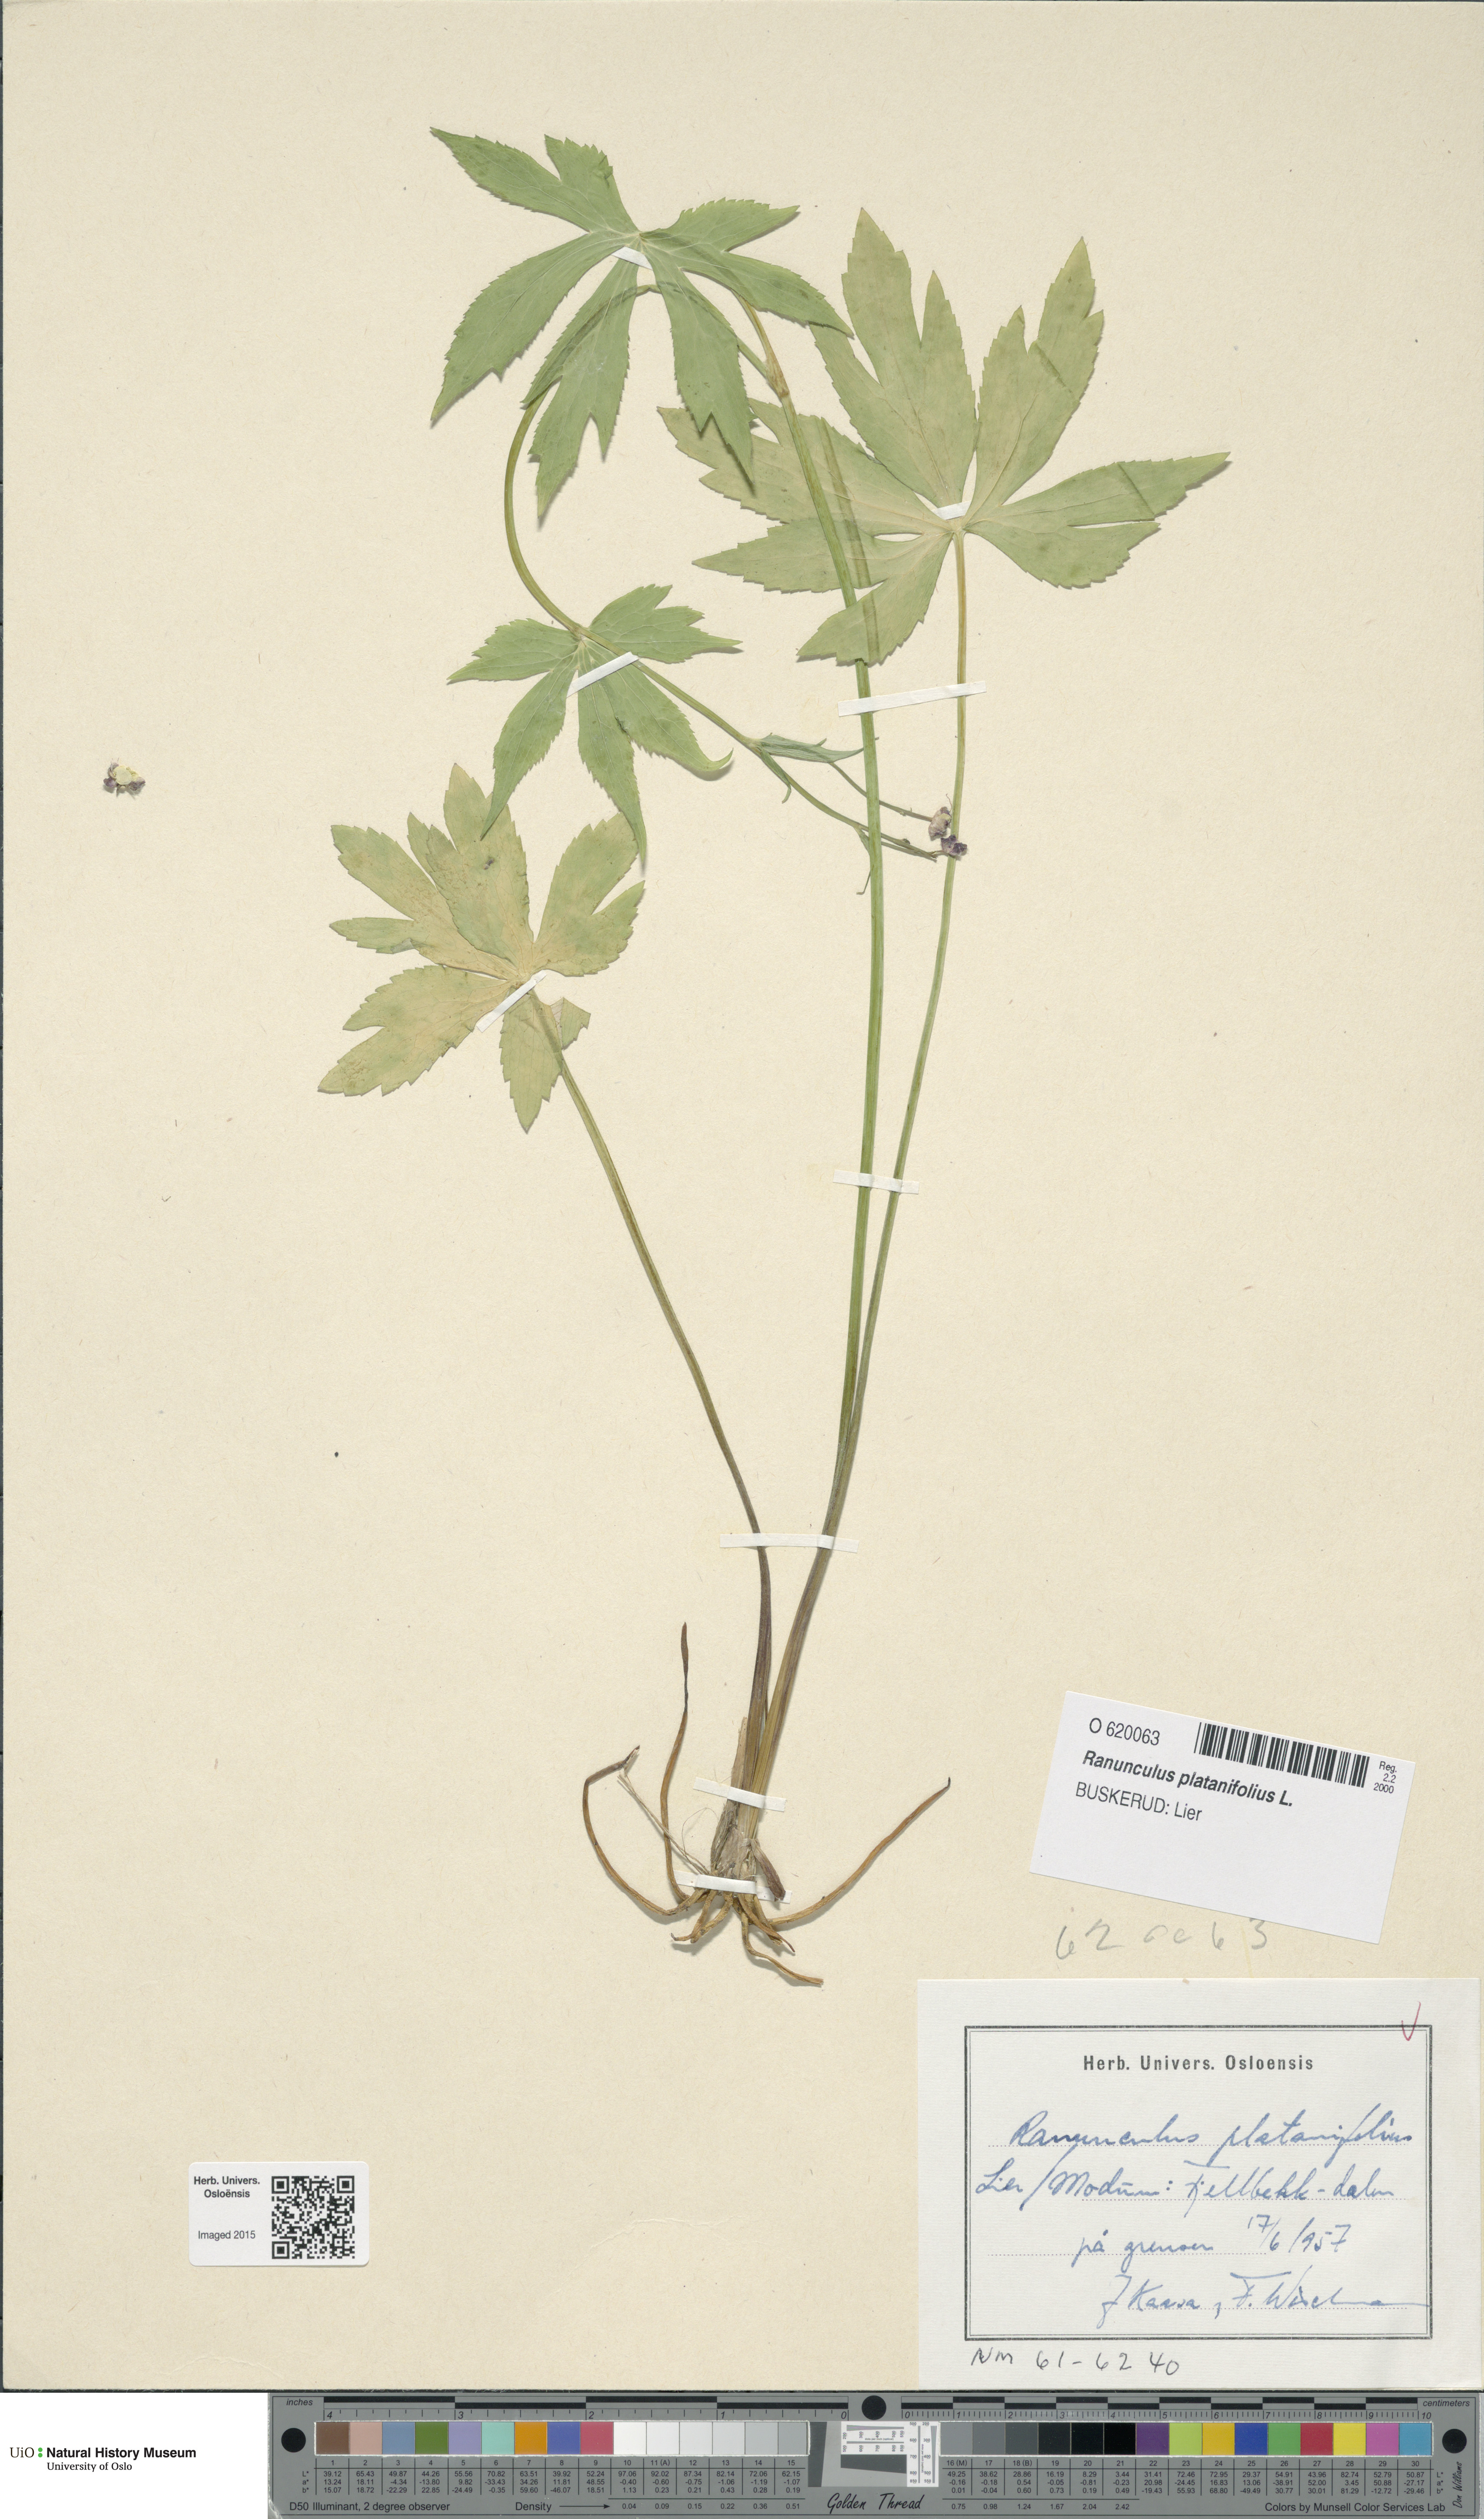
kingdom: Plantae
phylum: Tracheophyta
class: Magnoliopsida
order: Ranunculales
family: Ranunculaceae
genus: Ranunculus
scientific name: Ranunculus platanifolius
